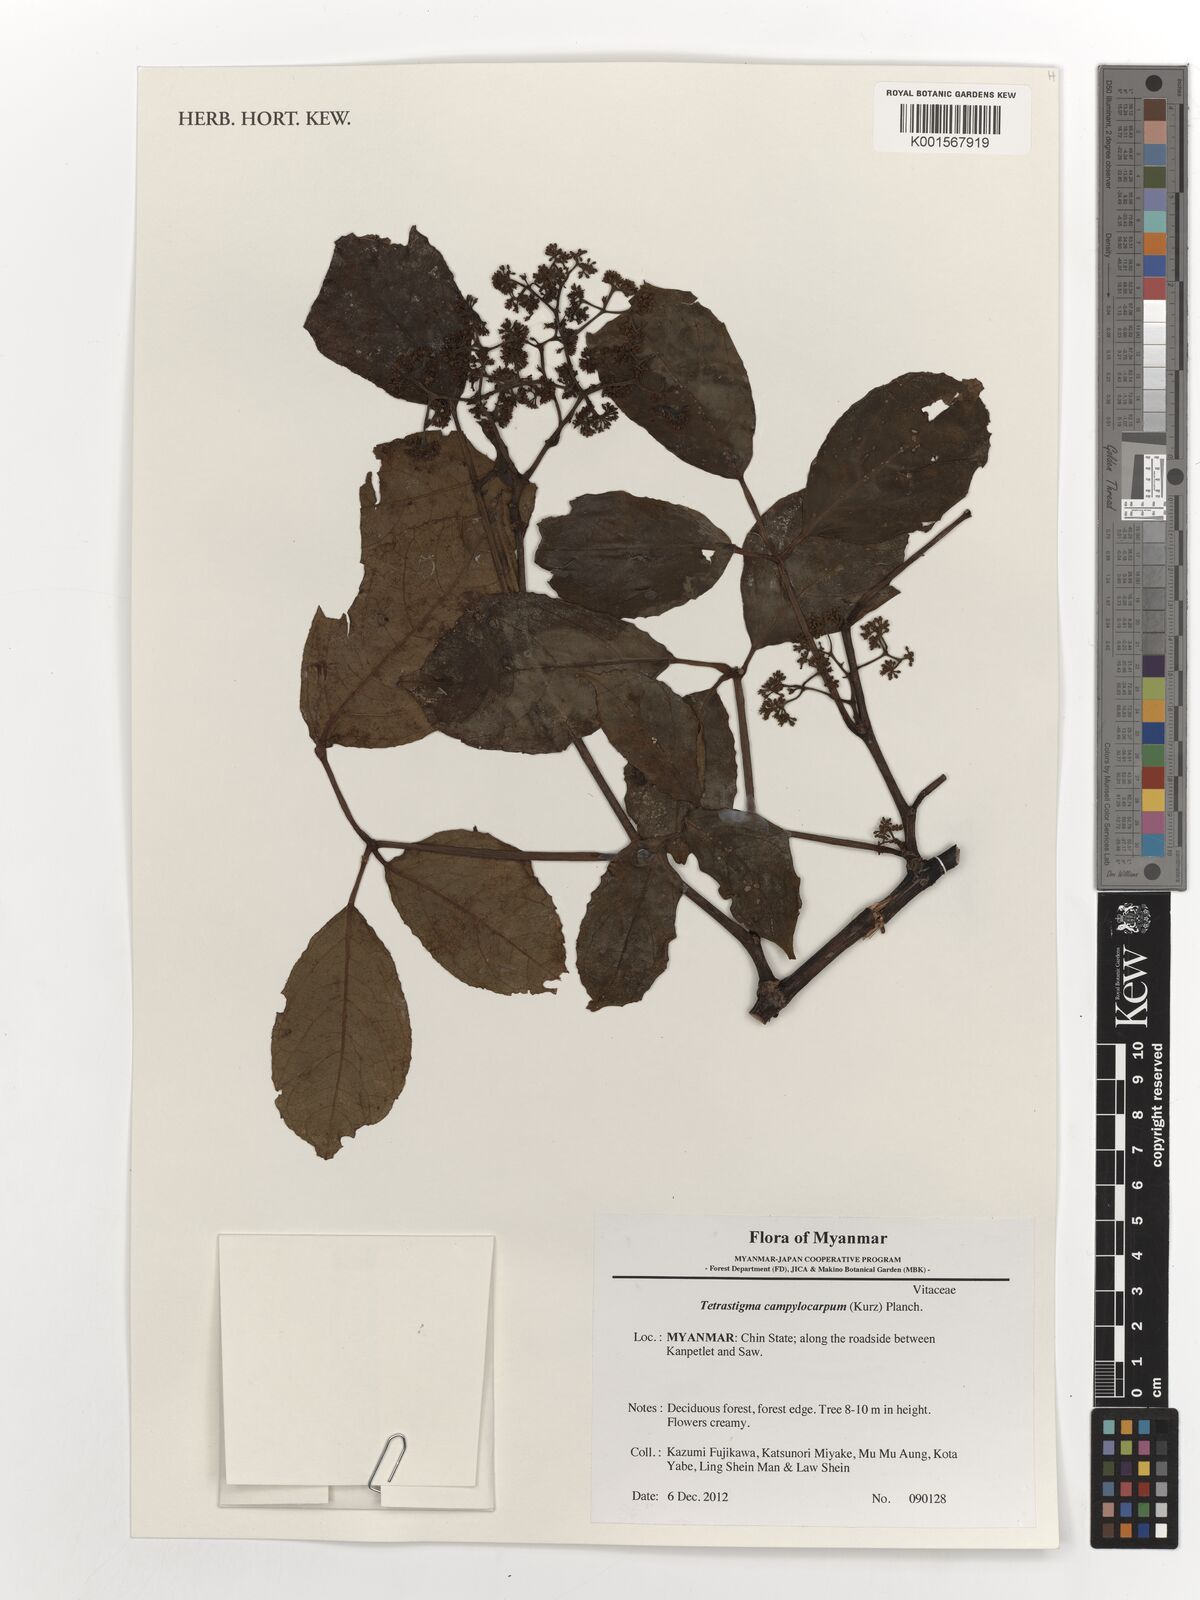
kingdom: Plantae
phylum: Tracheophyta
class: Magnoliopsida
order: Vitales
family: Vitaceae
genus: Tetrastigma
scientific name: Tetrastigma campylocarpum
